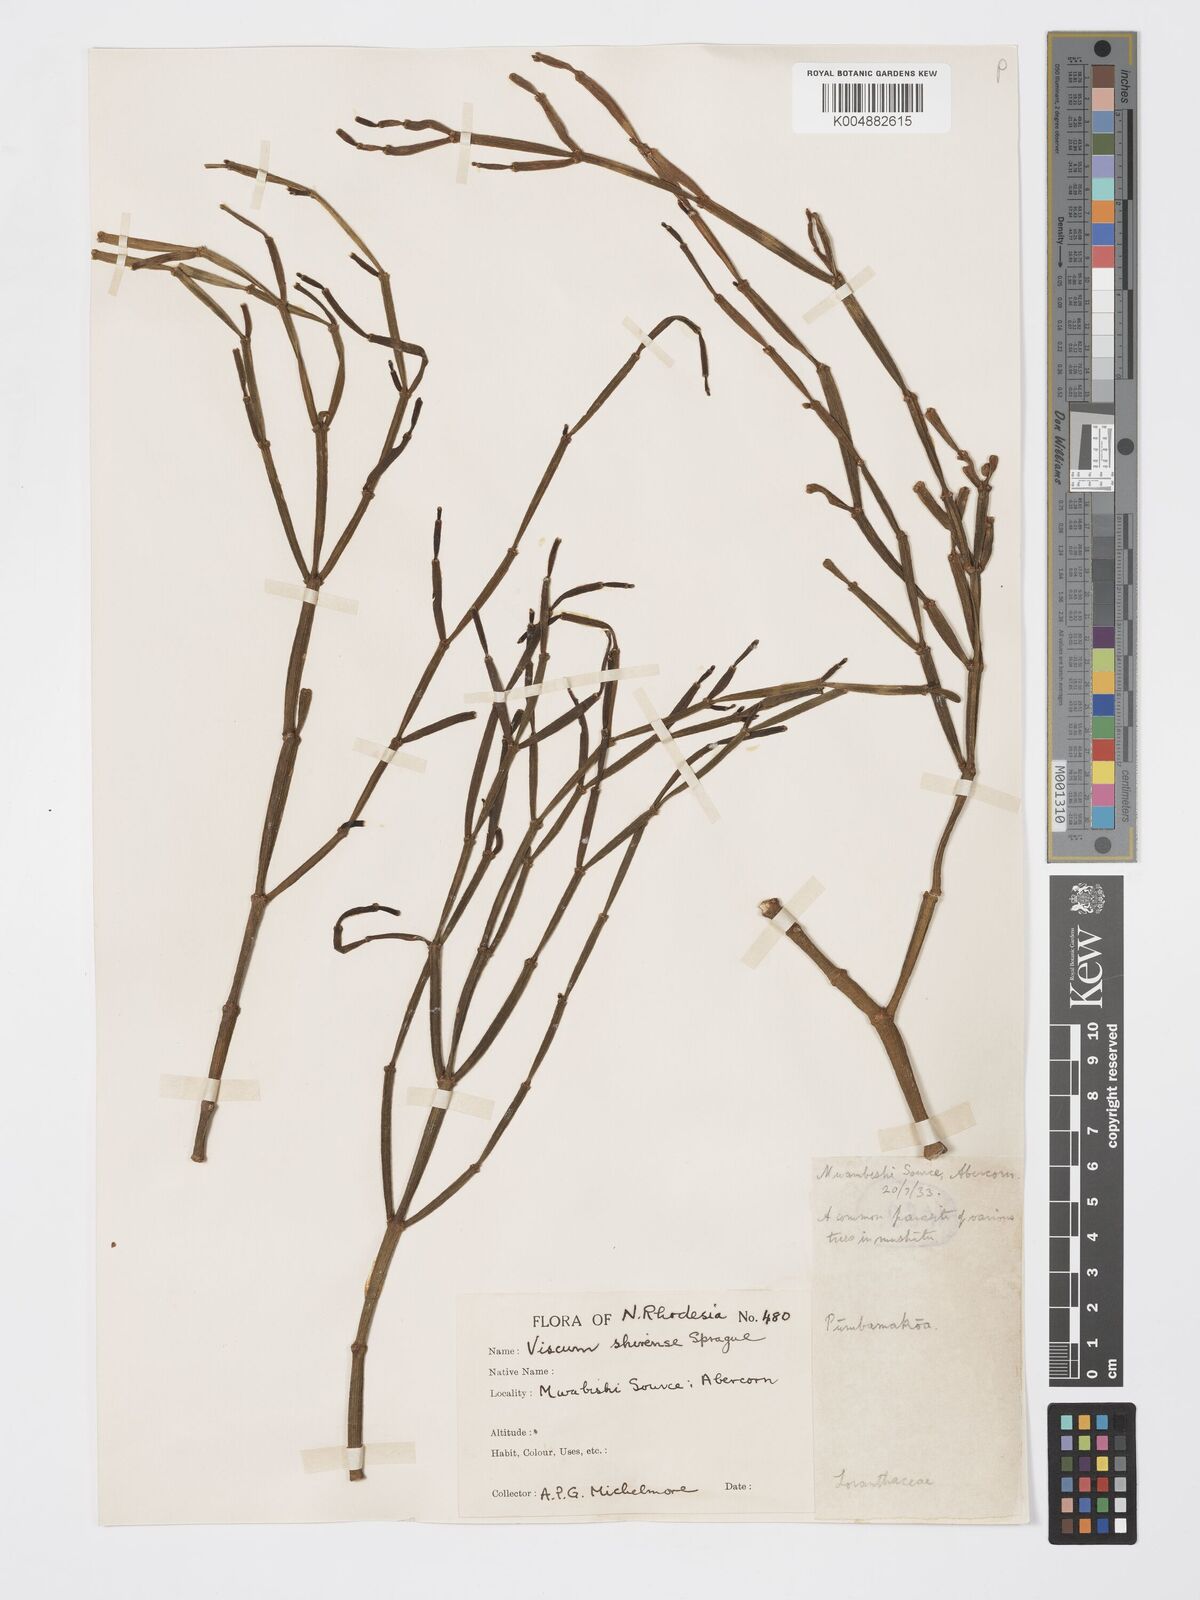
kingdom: Plantae
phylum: Tracheophyta
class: Magnoliopsida
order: Santalales
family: Viscaceae
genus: Viscum
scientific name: Viscum junodii
